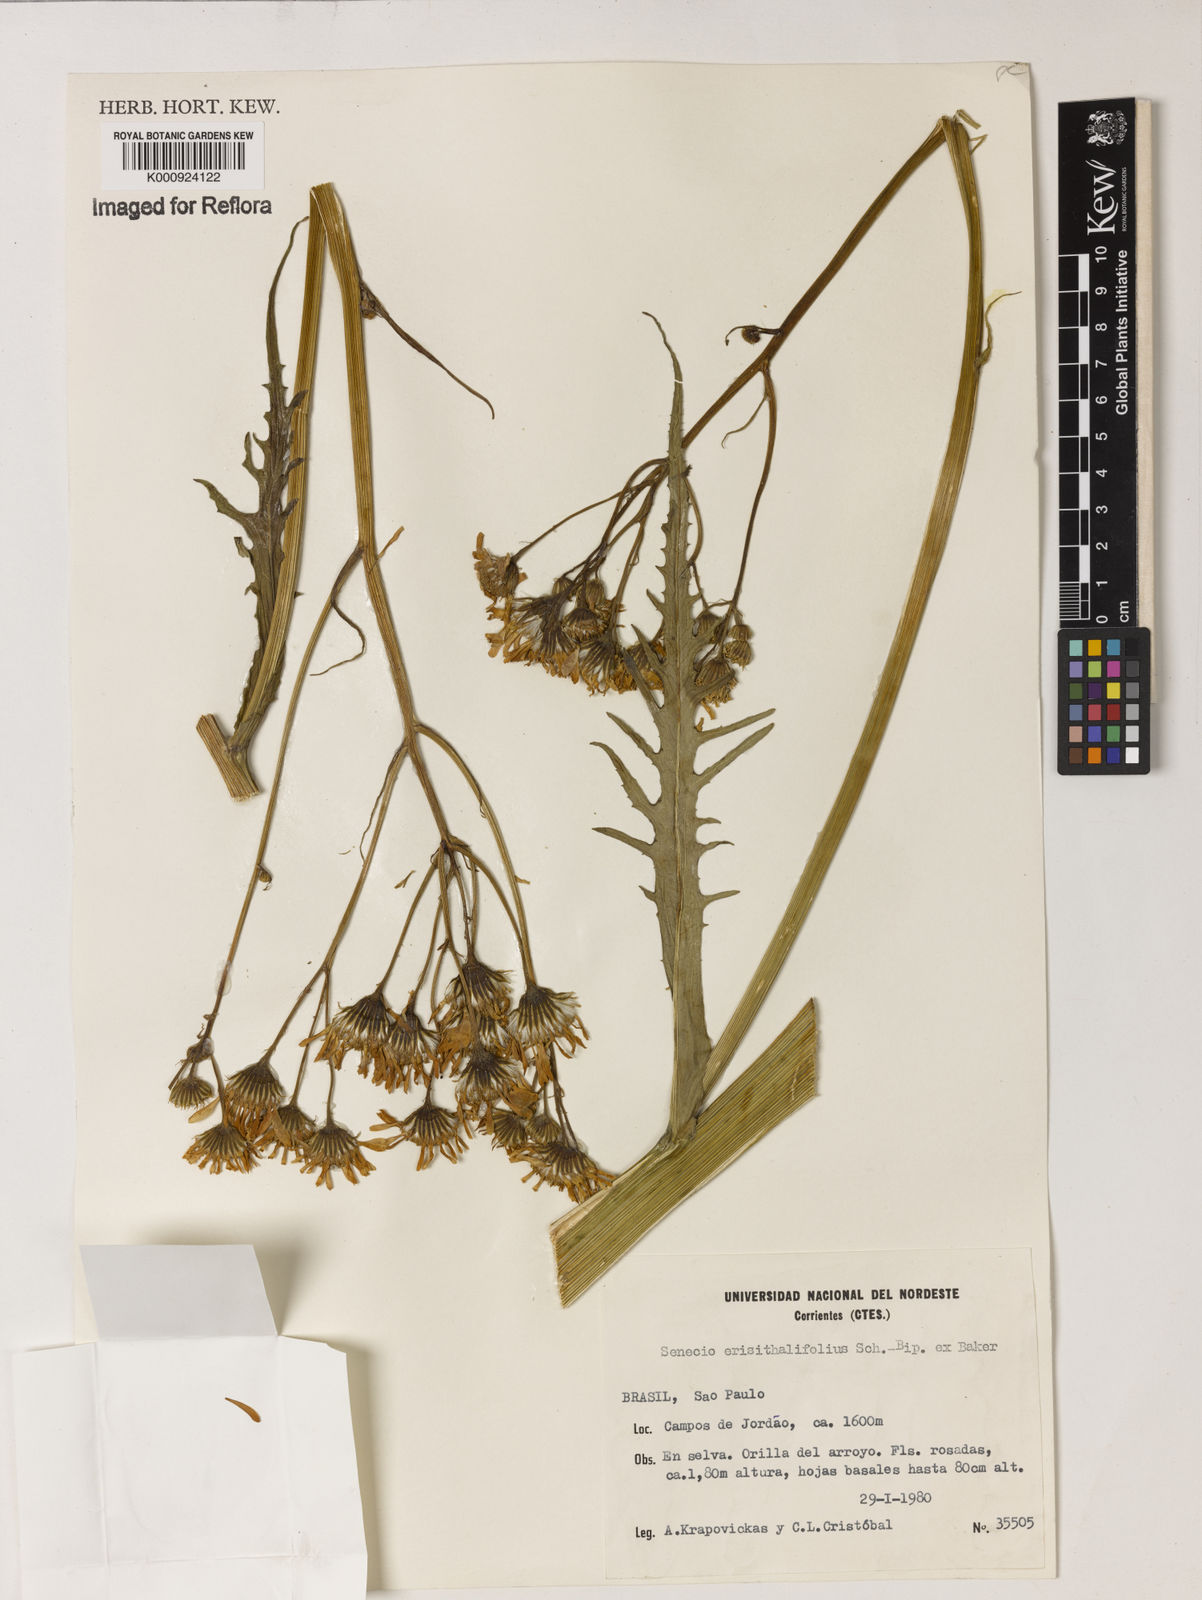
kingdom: Plantae
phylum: Tracheophyta
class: Magnoliopsida
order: Asterales
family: Asteraceae
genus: Senecio
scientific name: Senecio erisithalifolius
